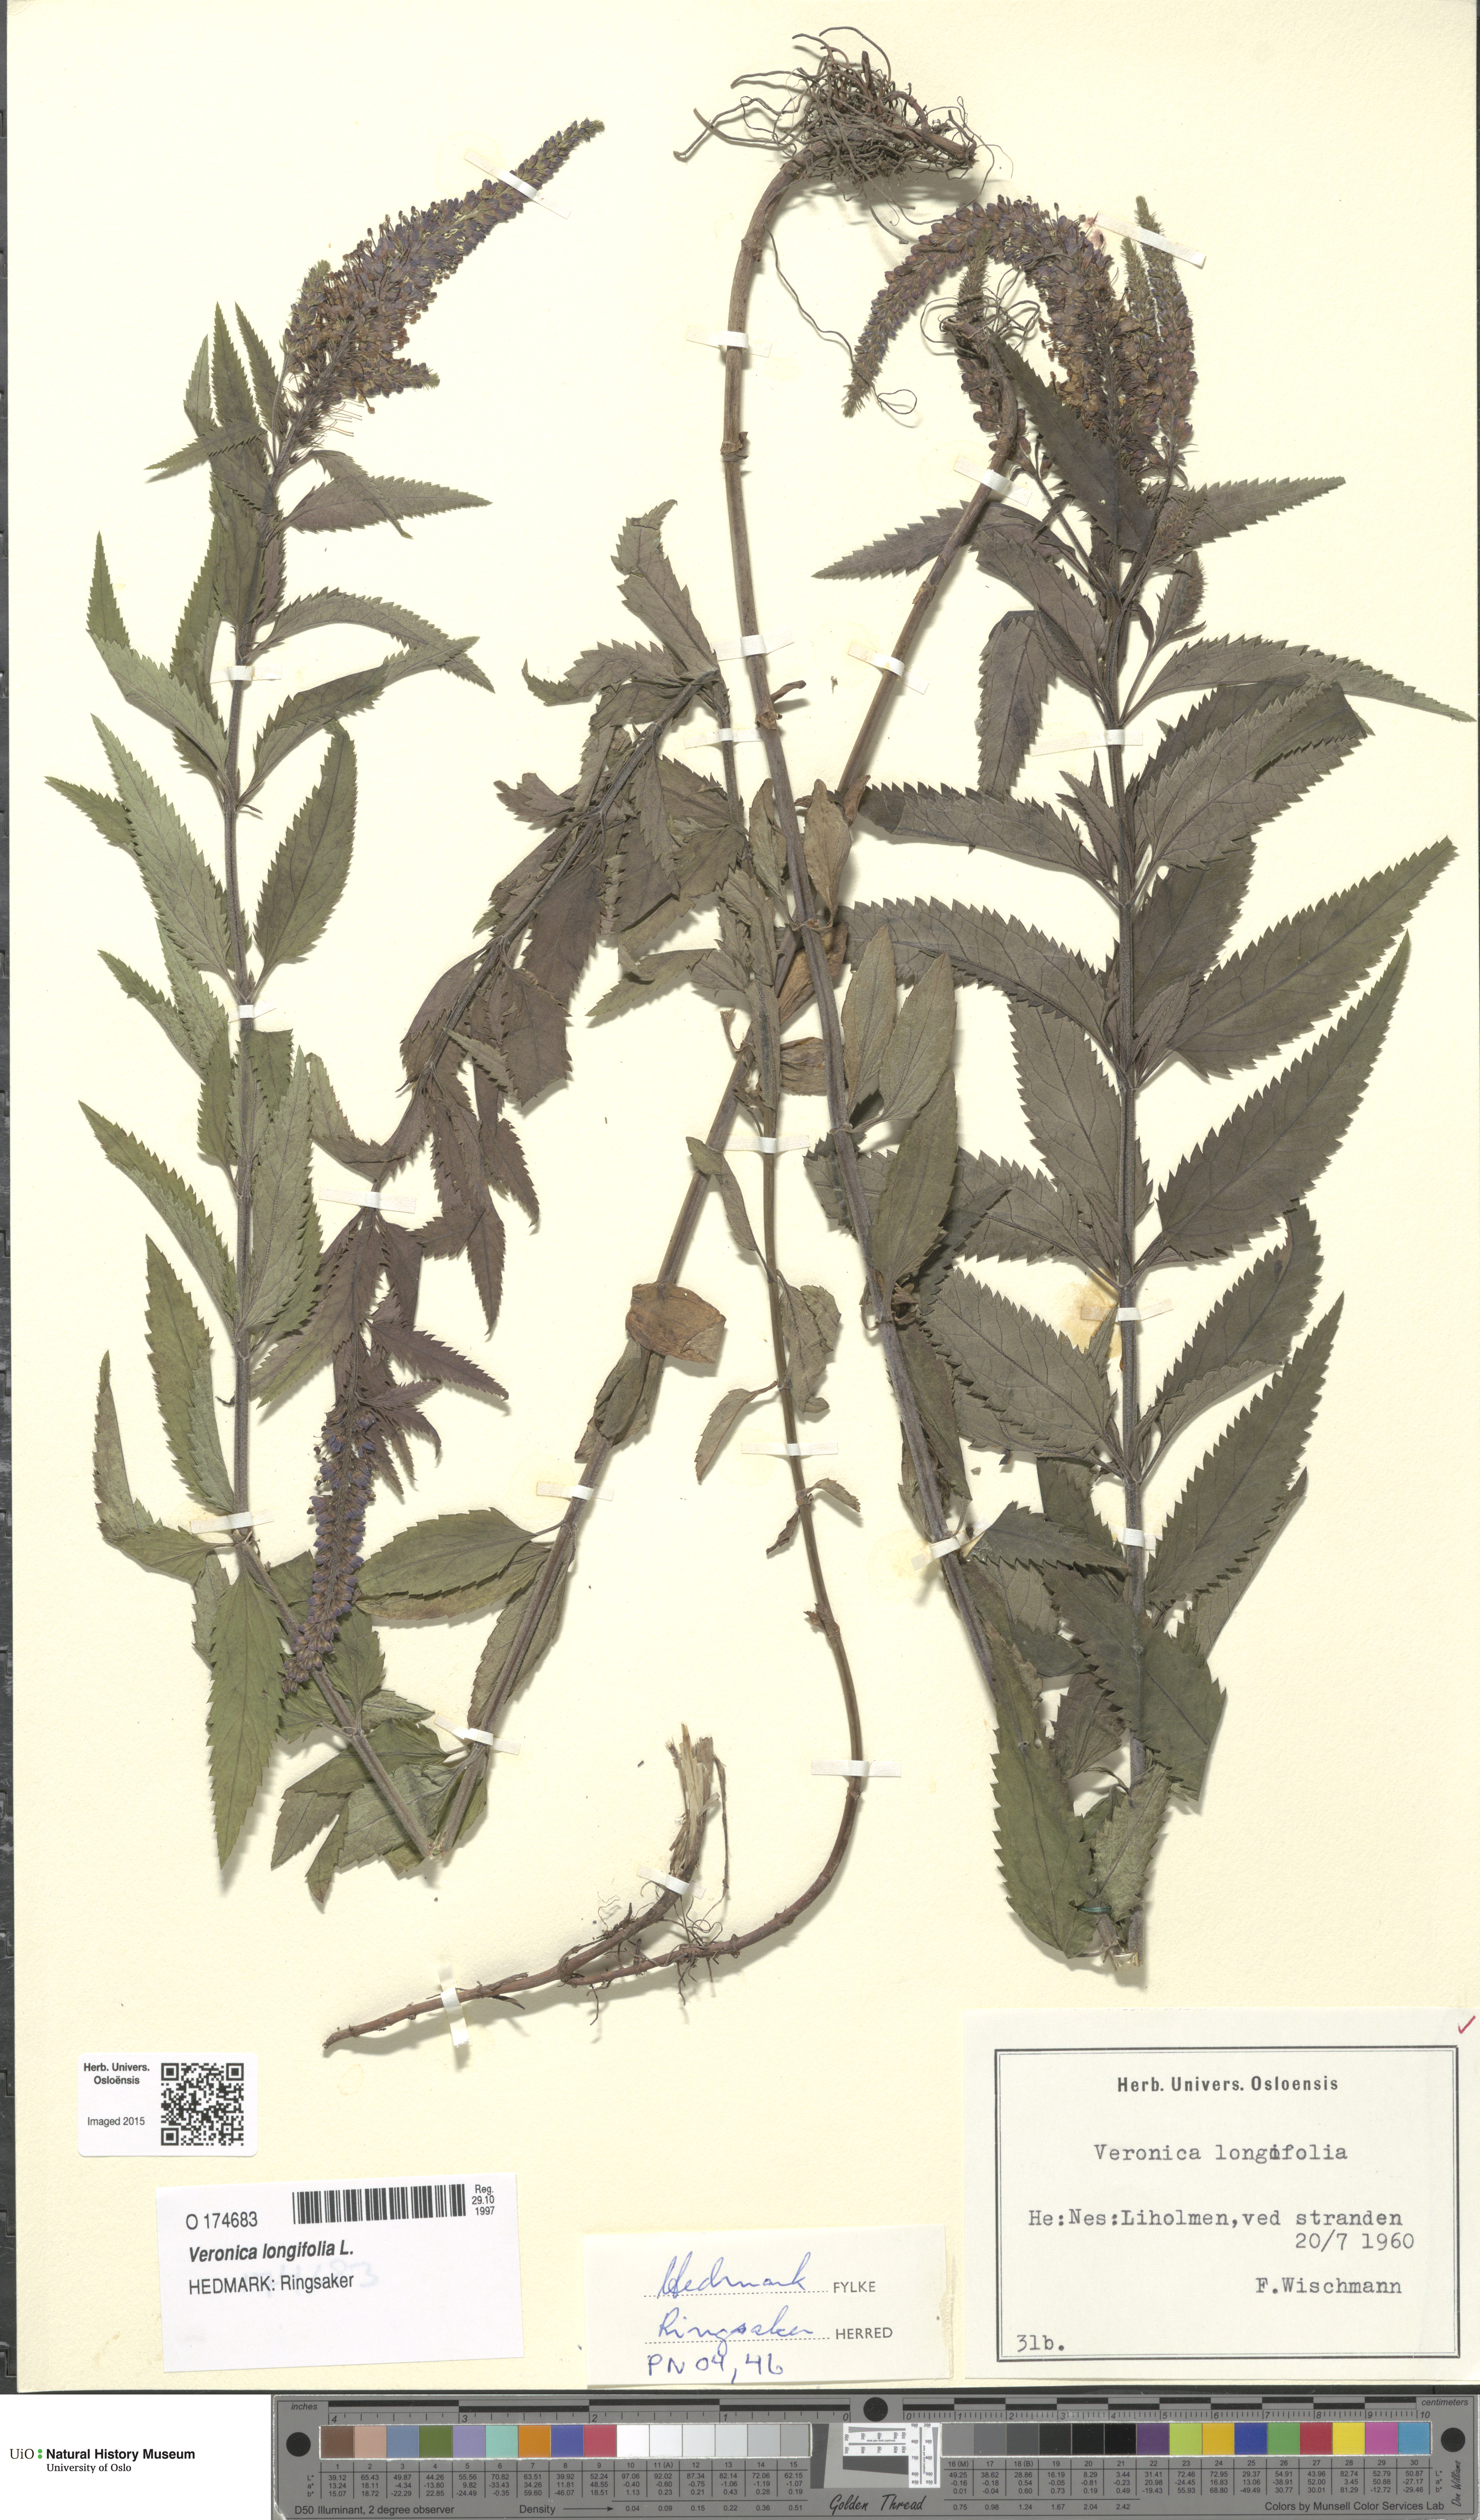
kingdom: Plantae
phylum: Tracheophyta
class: Magnoliopsida
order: Lamiales
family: Plantaginaceae
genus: Veronica
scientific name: Veronica longifolia
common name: Garden speedwell
